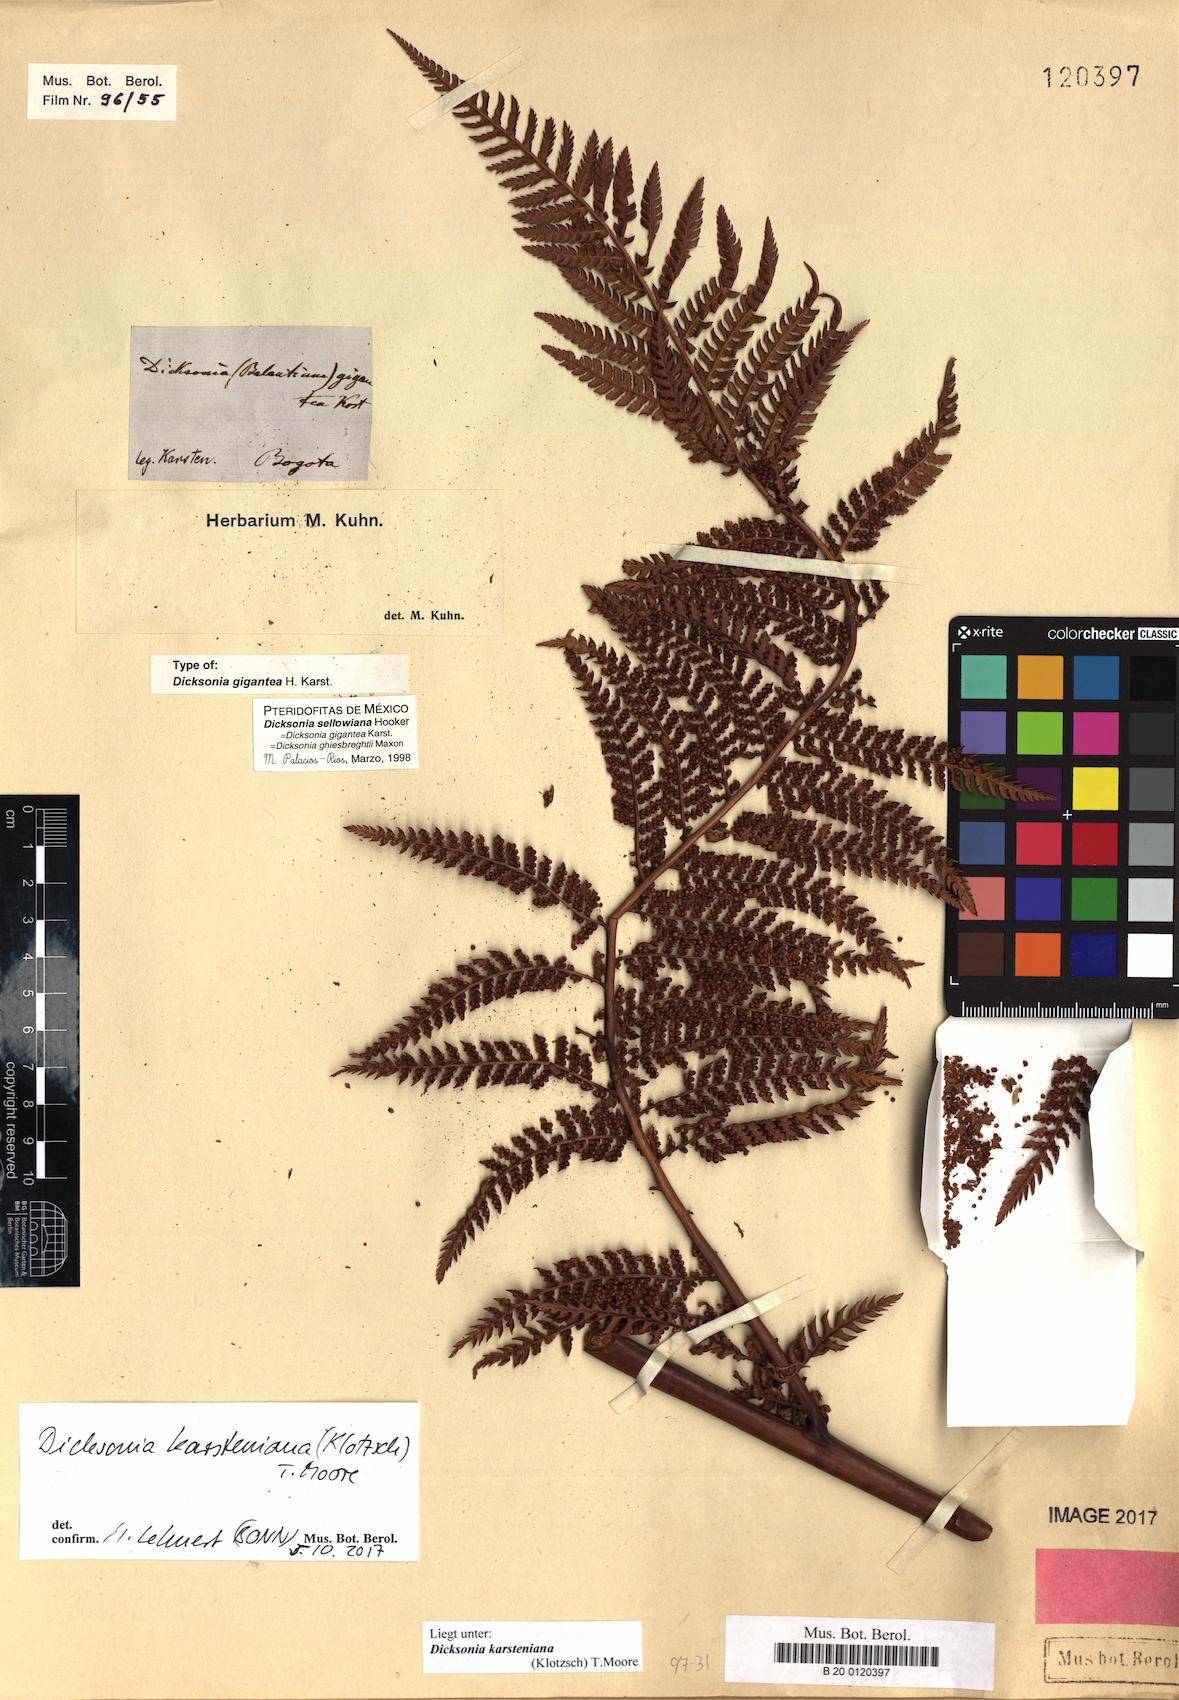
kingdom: Plantae
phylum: Tracheophyta
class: Polypodiopsida
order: Cyatheales
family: Dicksoniaceae
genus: Dicksonia
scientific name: Dicksonia karsteniana
